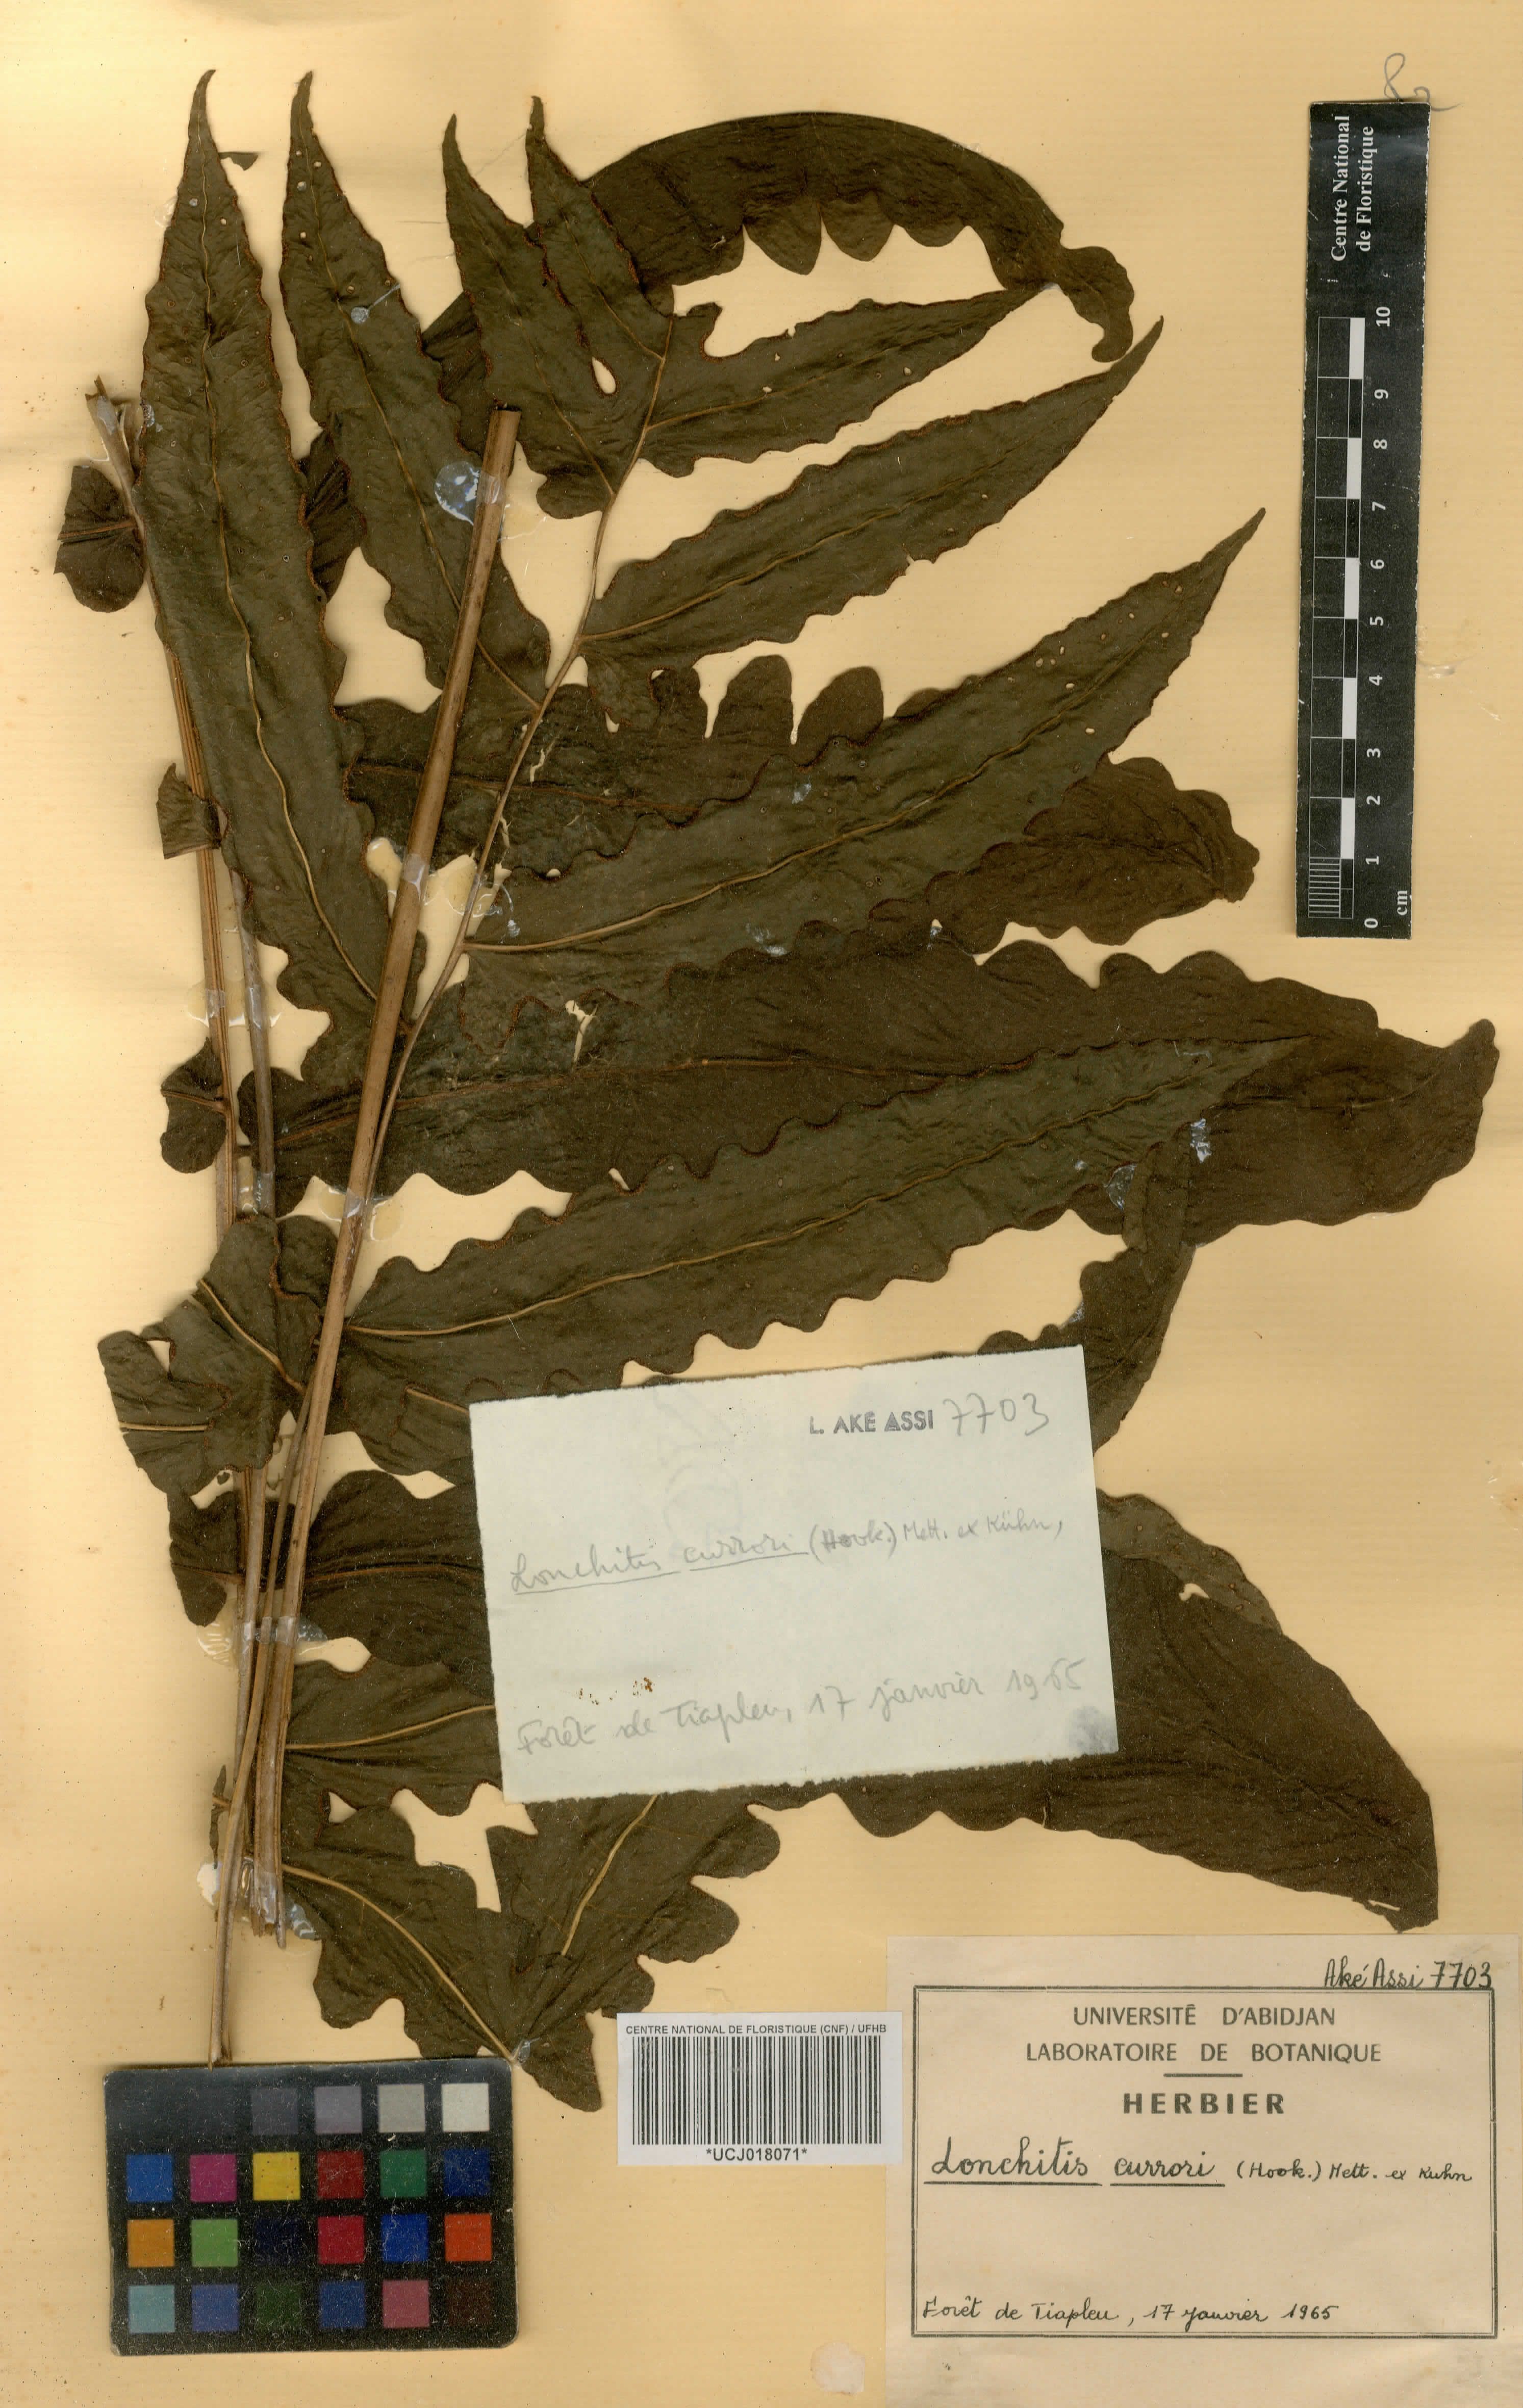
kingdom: Plantae
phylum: Tracheophyta
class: Polypodiopsida
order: Polypodiales
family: Dennstaedtiaceae
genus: Blotiella
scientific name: Blotiella currorii
